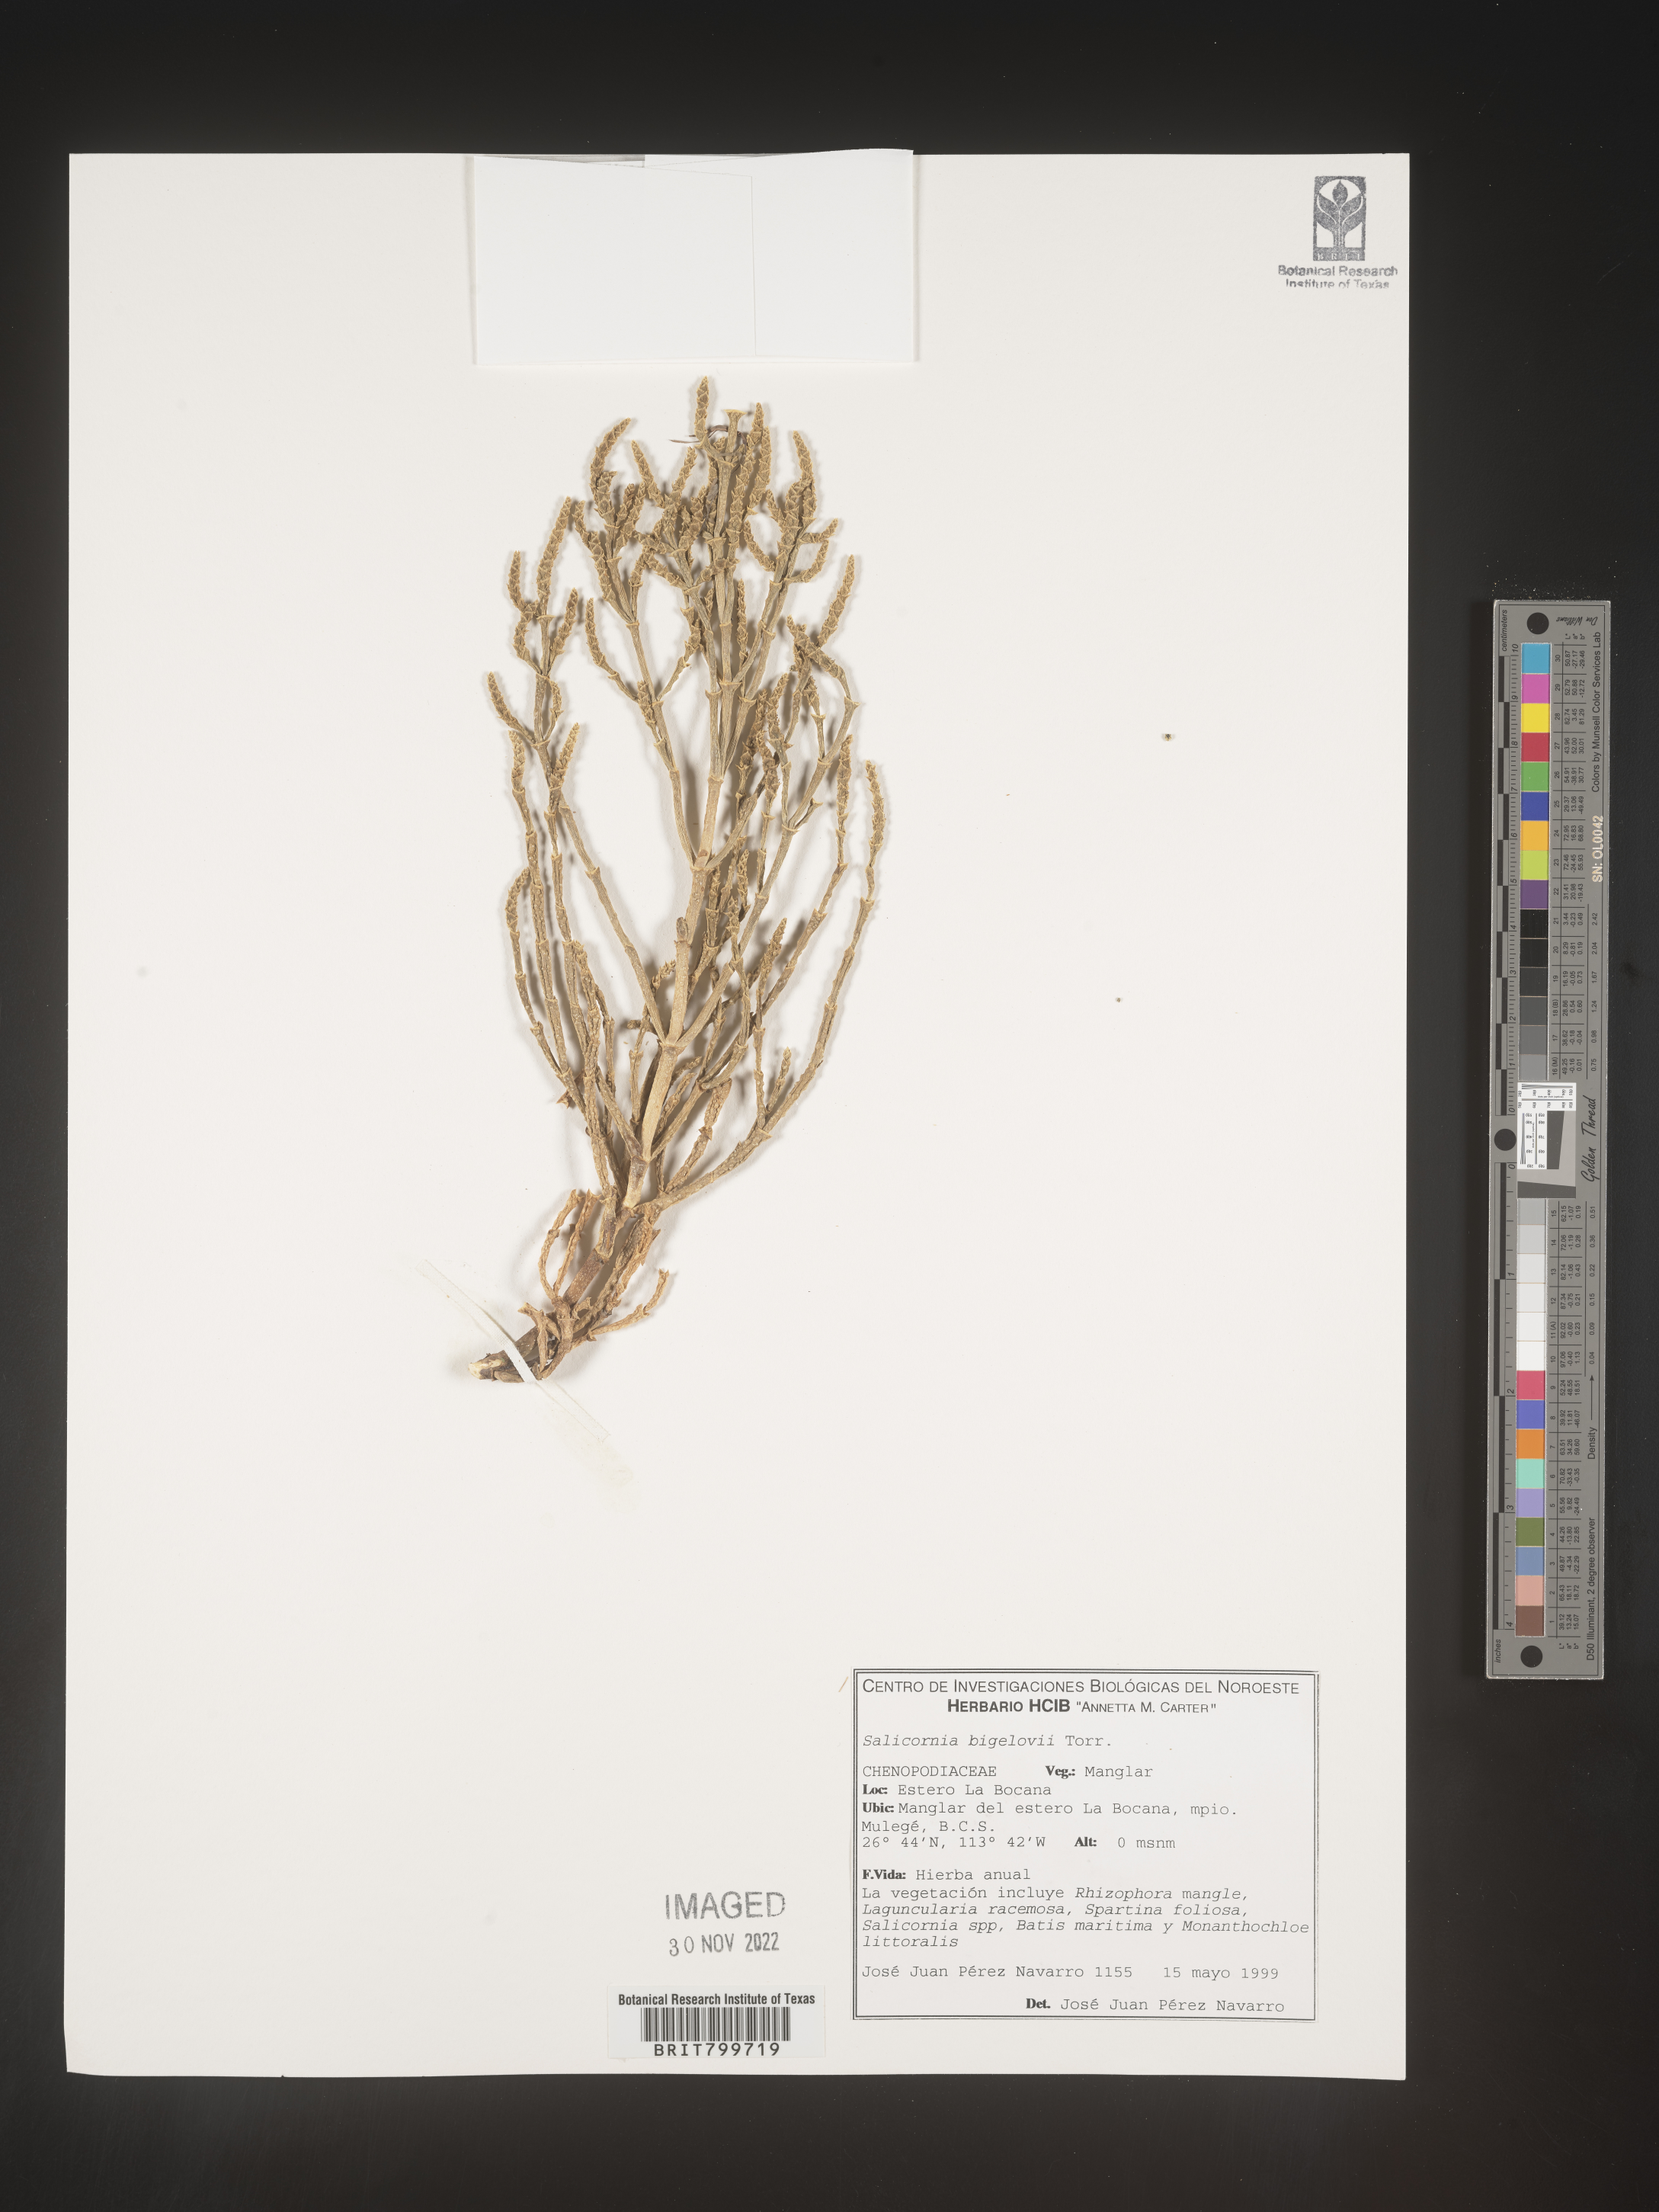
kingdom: Plantae
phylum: Tracheophyta
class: Magnoliopsida
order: Caryophyllales
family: Amaranthaceae
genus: Salicornia
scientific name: Salicornia
